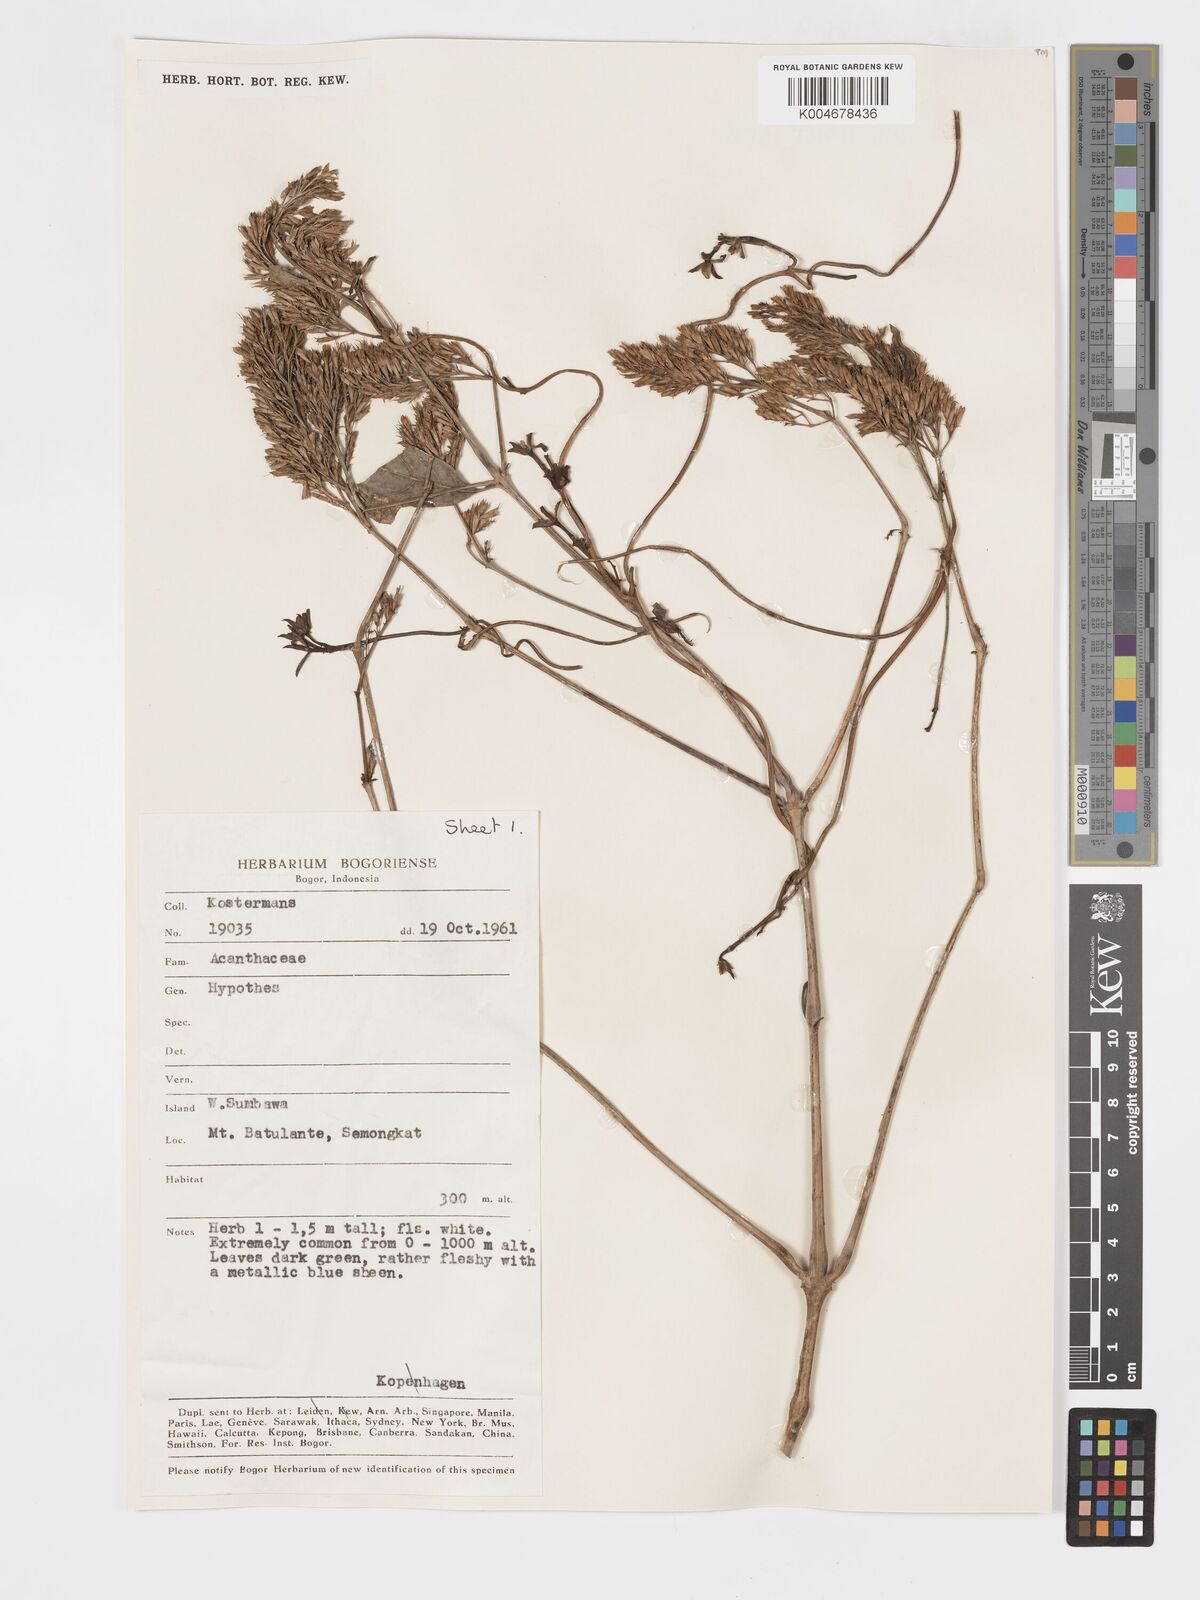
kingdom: Plantae
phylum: Tracheophyta
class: Magnoliopsida
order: Lamiales
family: Acanthaceae
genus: Hypoestes
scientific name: Hypoestes
